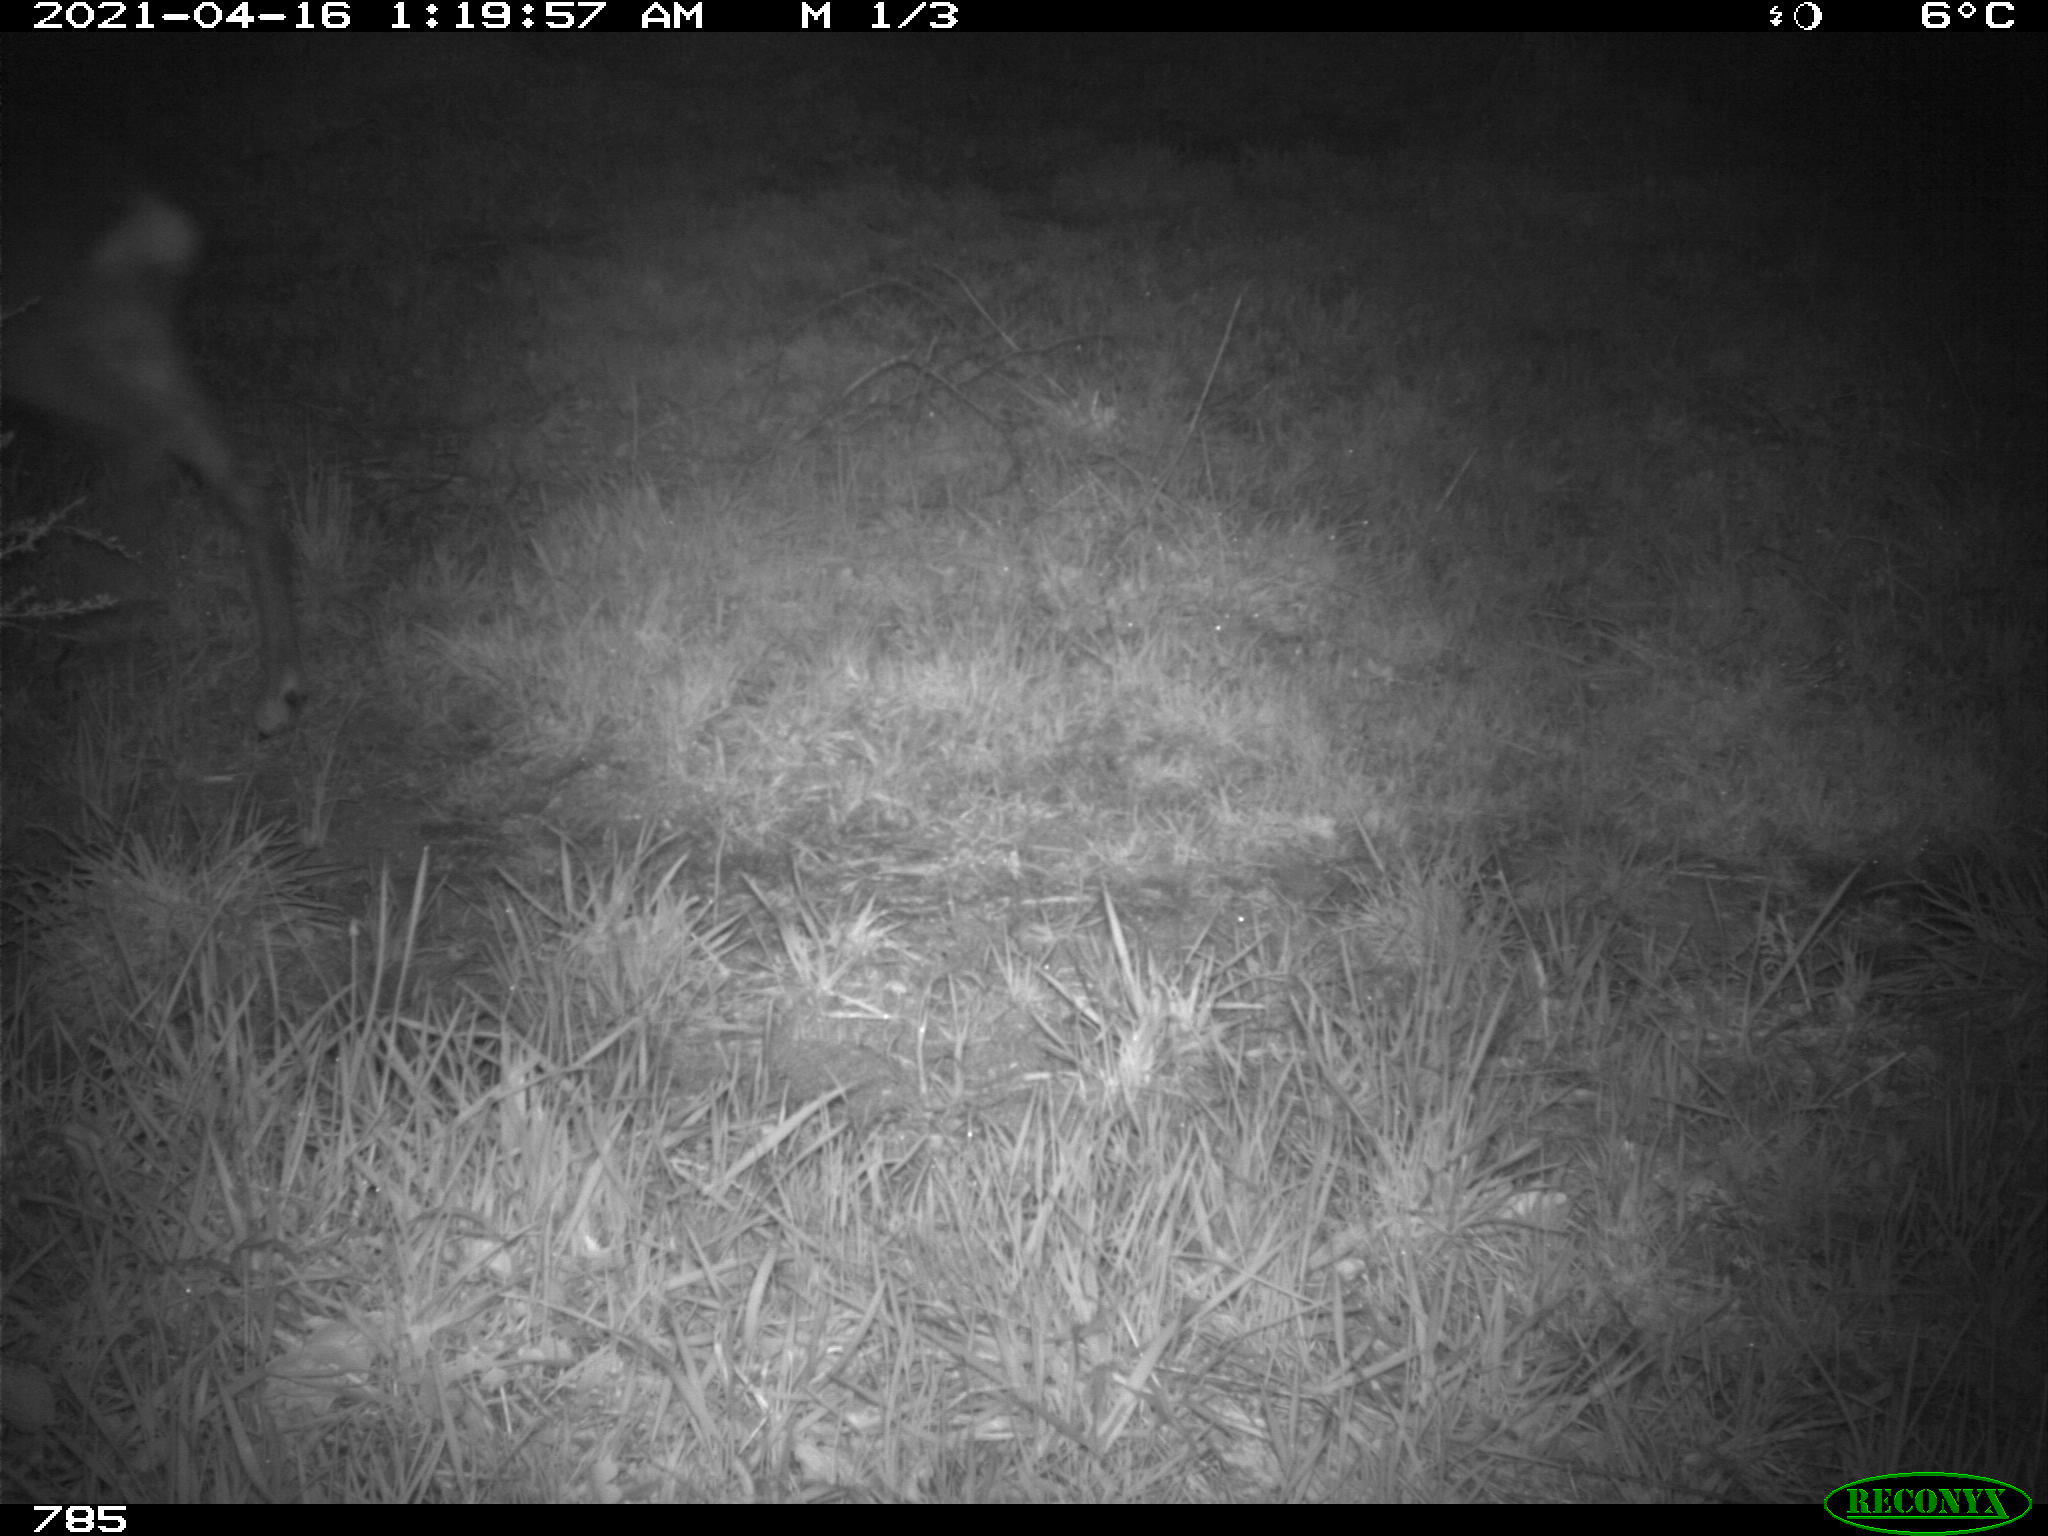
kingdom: Animalia
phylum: Chordata
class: Mammalia
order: Artiodactyla
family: Cervidae
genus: Capreolus
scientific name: Capreolus capreolus
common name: Western roe deer
